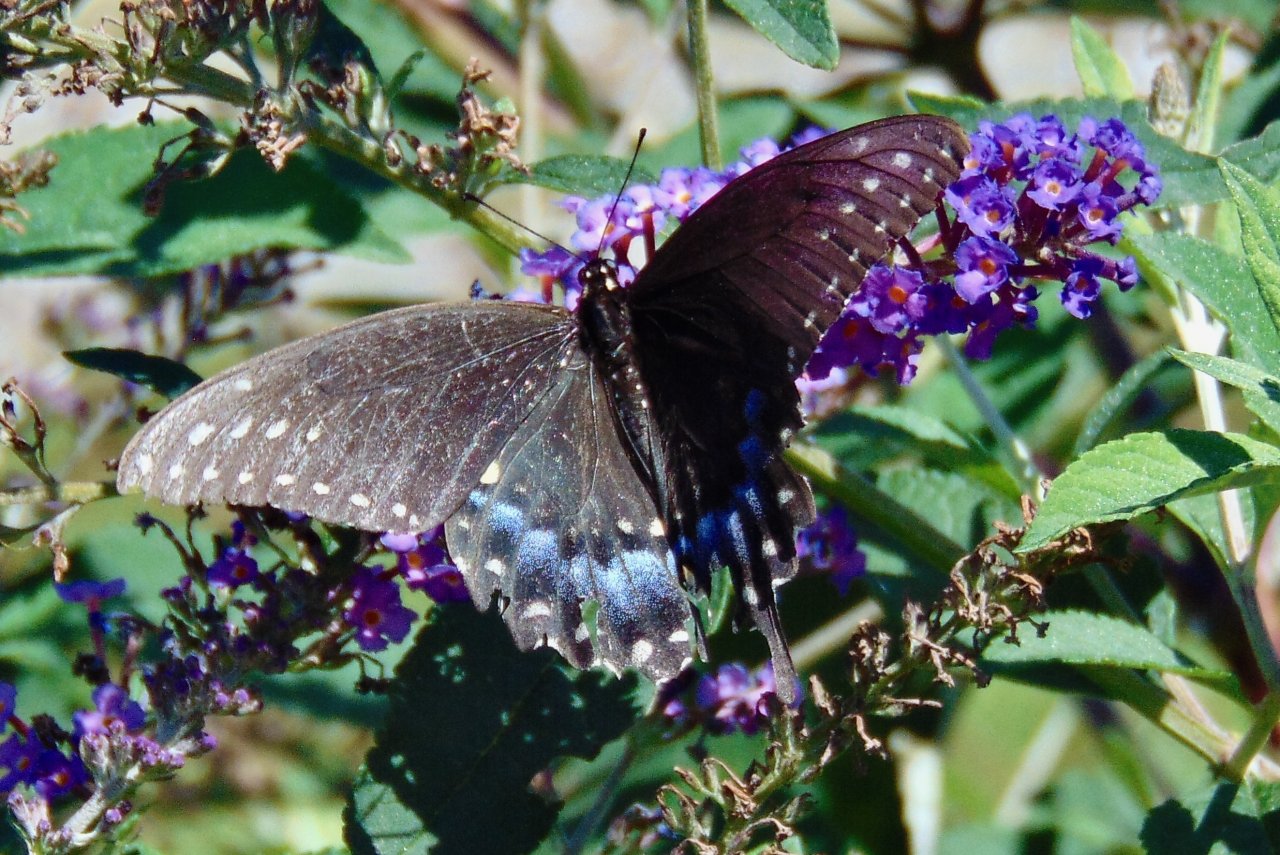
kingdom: Animalia
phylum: Arthropoda
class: Insecta
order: Lepidoptera
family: Papilionidae
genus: Papilio
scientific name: Papilio polyxenes
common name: Black Swallowtail
